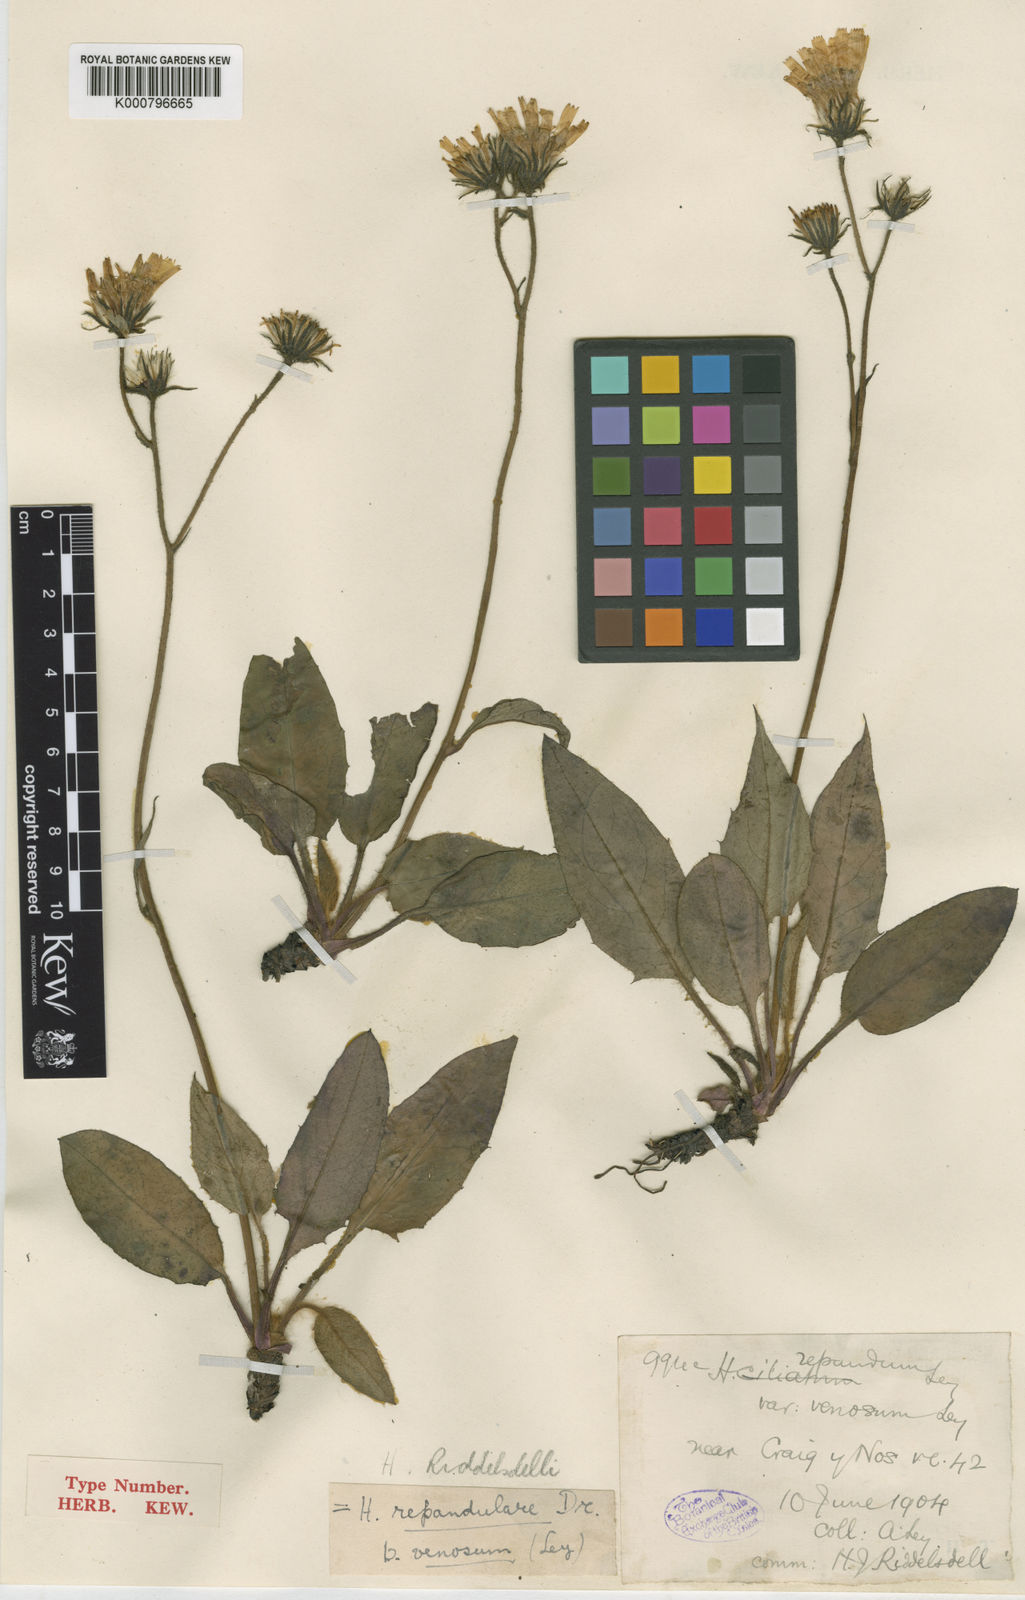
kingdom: Plantae
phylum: Tracheophyta
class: Magnoliopsida
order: Asterales
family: Asteraceae
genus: Hieracium
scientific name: Hieracium riddelsdellii
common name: Riddelsdell's hawkweed
